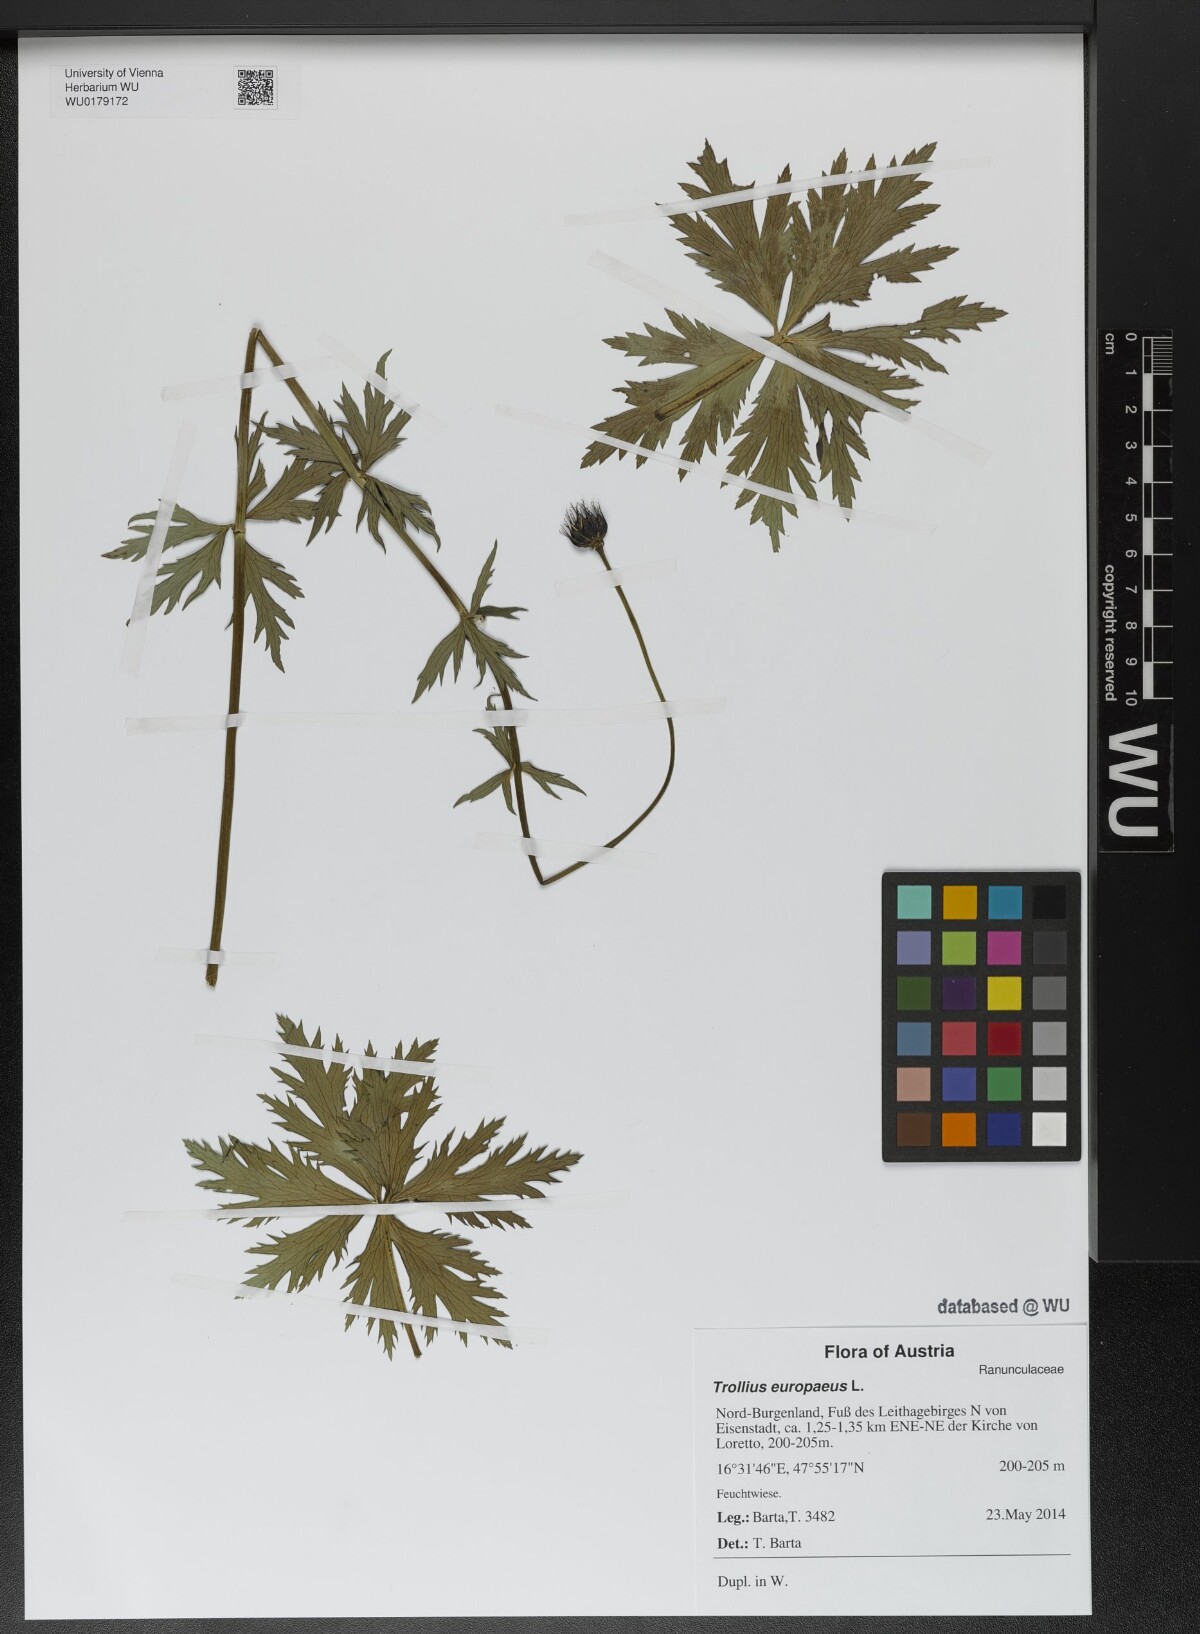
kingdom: Plantae
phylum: Tracheophyta
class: Magnoliopsida
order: Ranunculales
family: Ranunculaceae
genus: Trollius
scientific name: Trollius europaeus
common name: European globeflower
